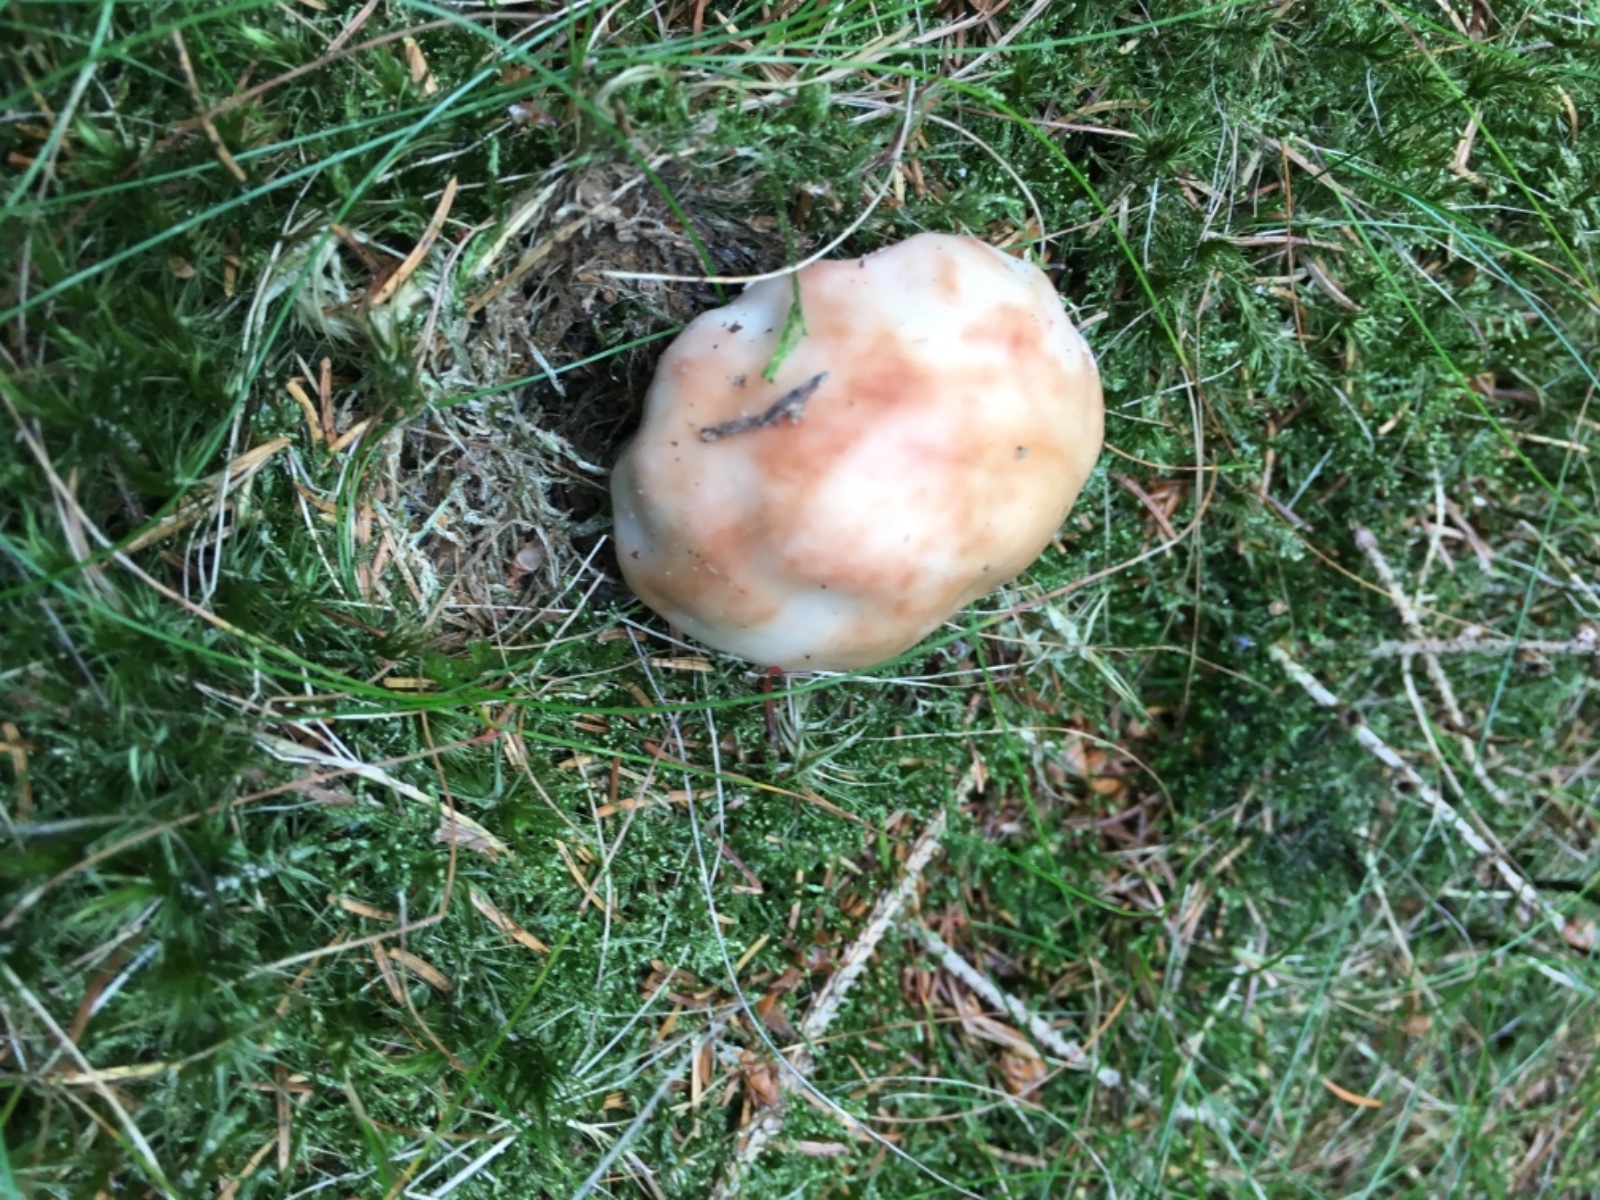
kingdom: Fungi
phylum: Basidiomycota
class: Agaricomycetes
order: Agaricales
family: Amanitaceae
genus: Amanita
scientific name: Amanita rubescens
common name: rødmende fluesvamp
